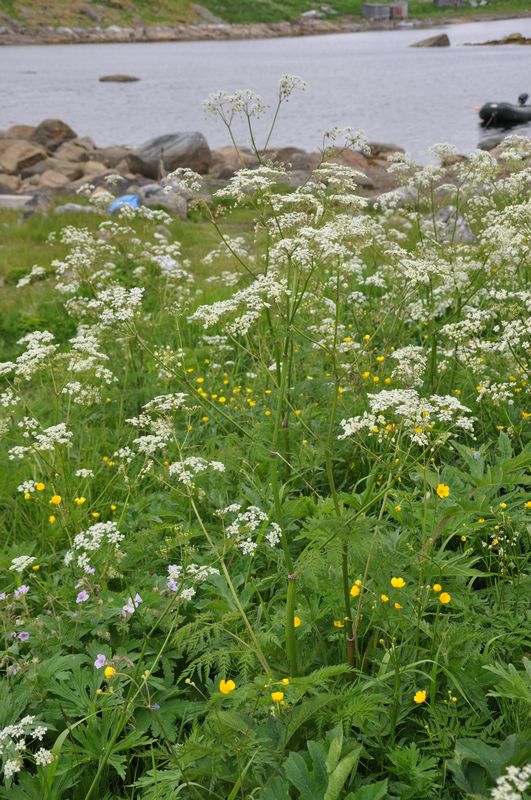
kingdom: Plantae
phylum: Tracheophyta
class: Magnoliopsida
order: Apiales
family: Apiaceae
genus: Anthriscus
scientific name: Anthriscus sylvestris
